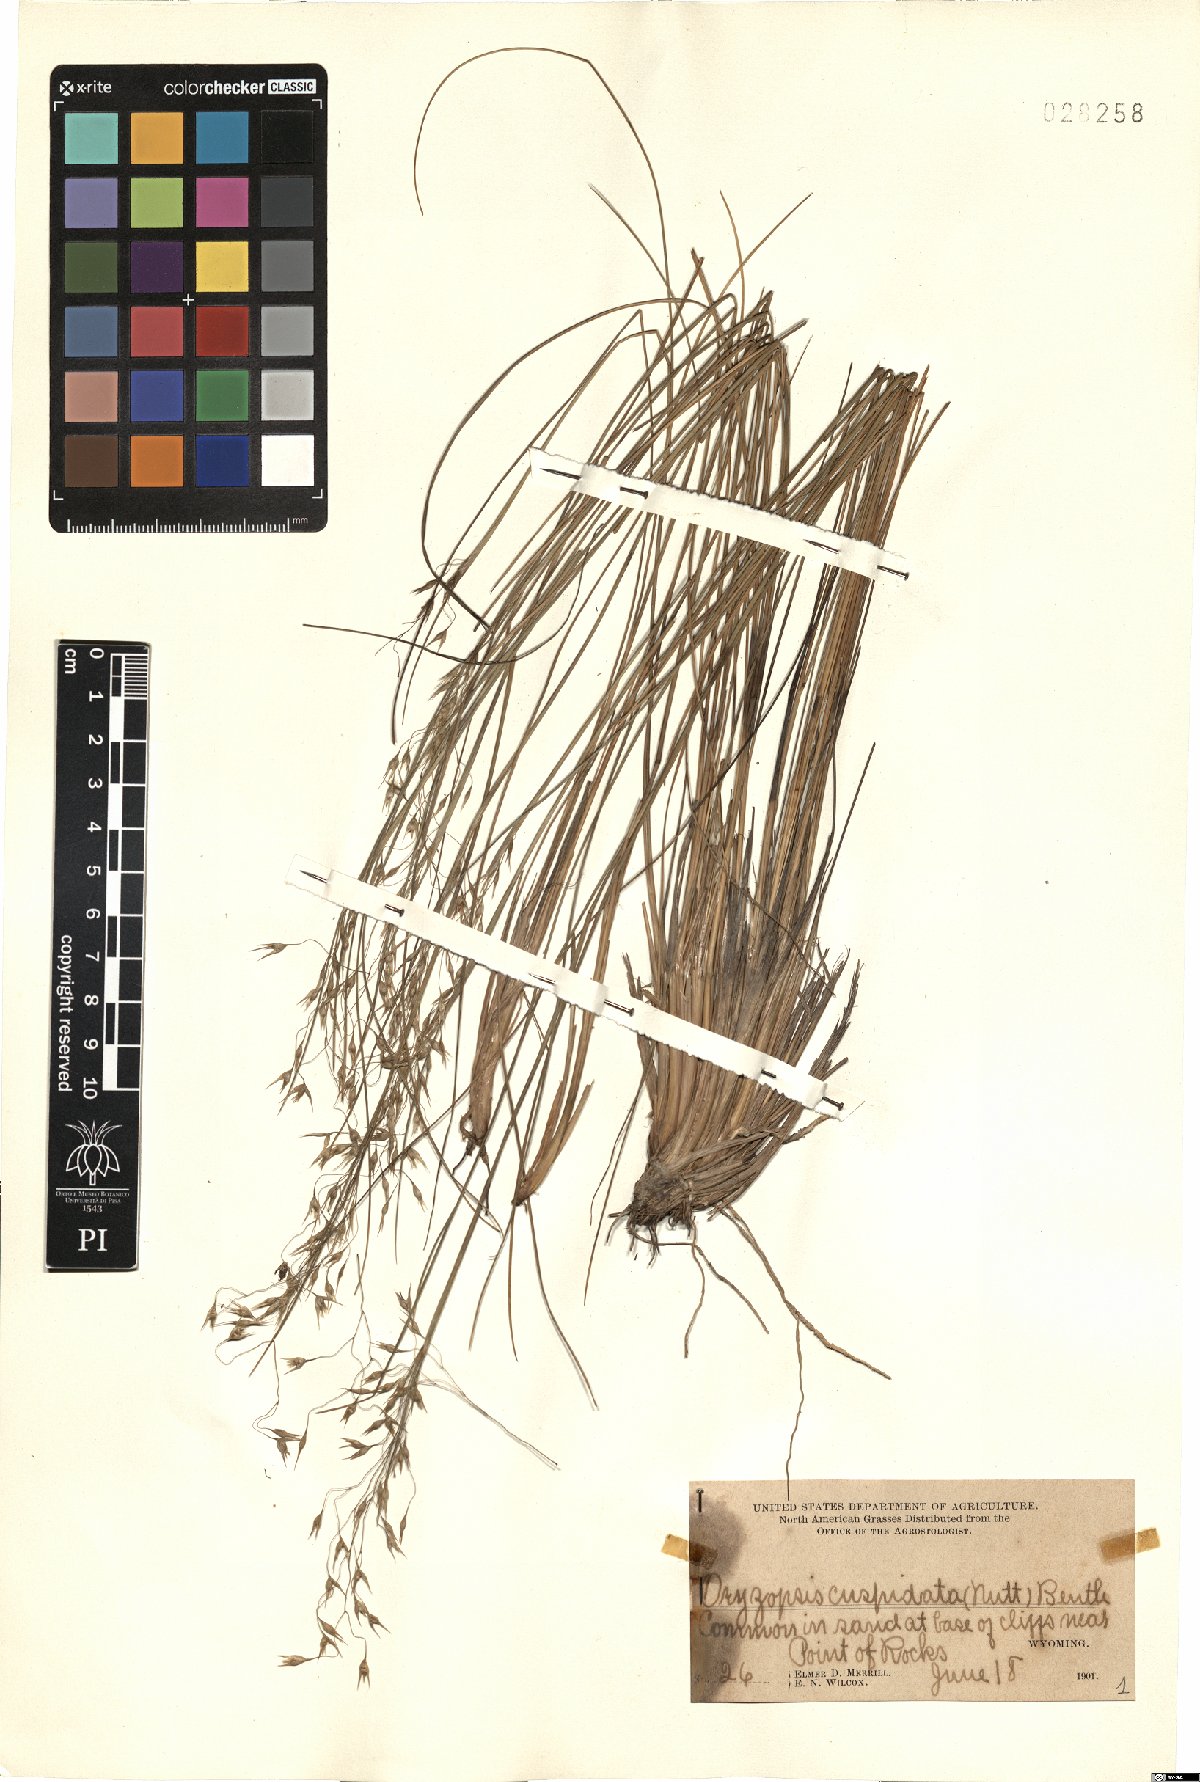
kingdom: Plantae
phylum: Tracheophyta
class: Liliopsida
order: Poales
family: Poaceae
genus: Eriocoma
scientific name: Eriocoma hymenoides
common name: Indian mountain ricegrass
